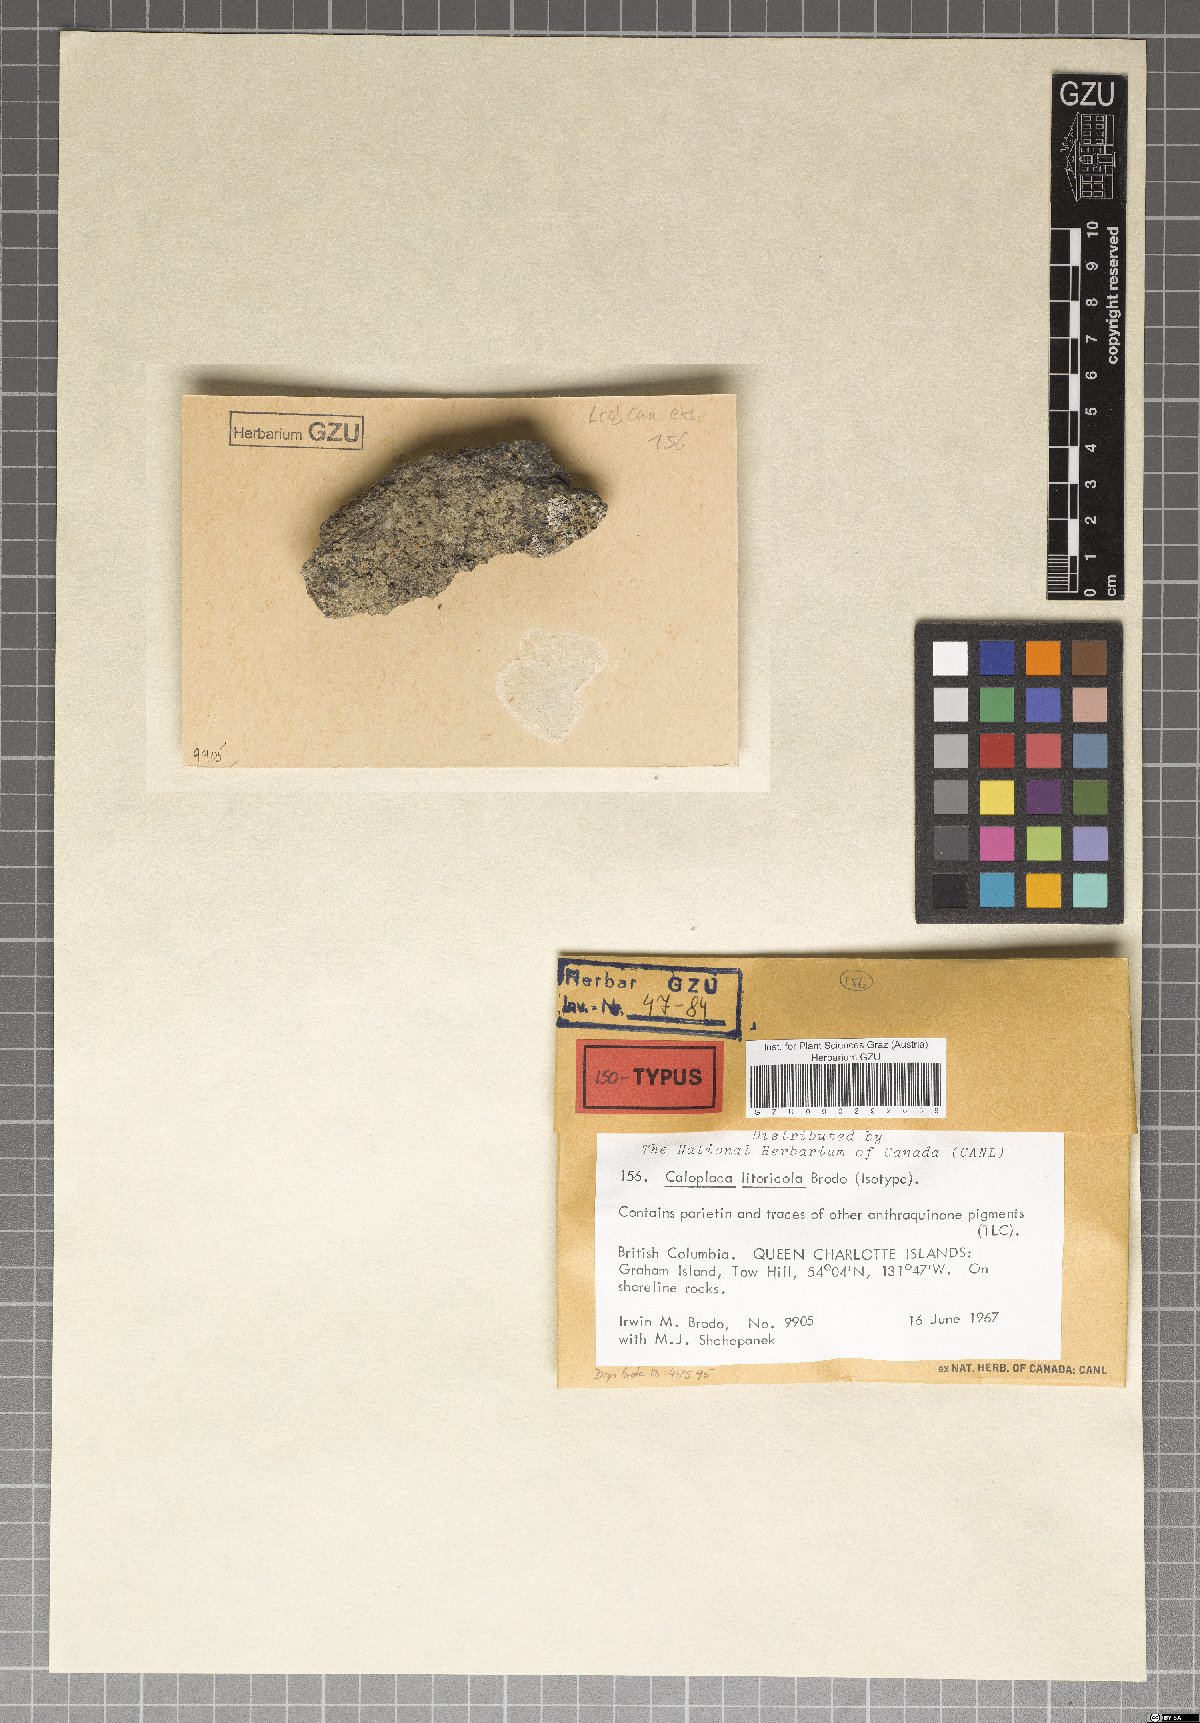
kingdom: Fungi
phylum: Ascomycota
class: Lecanoromycetes
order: Teloschistales
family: Teloschistaceae
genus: Caloplaca
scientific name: Caloplaca litoricola
